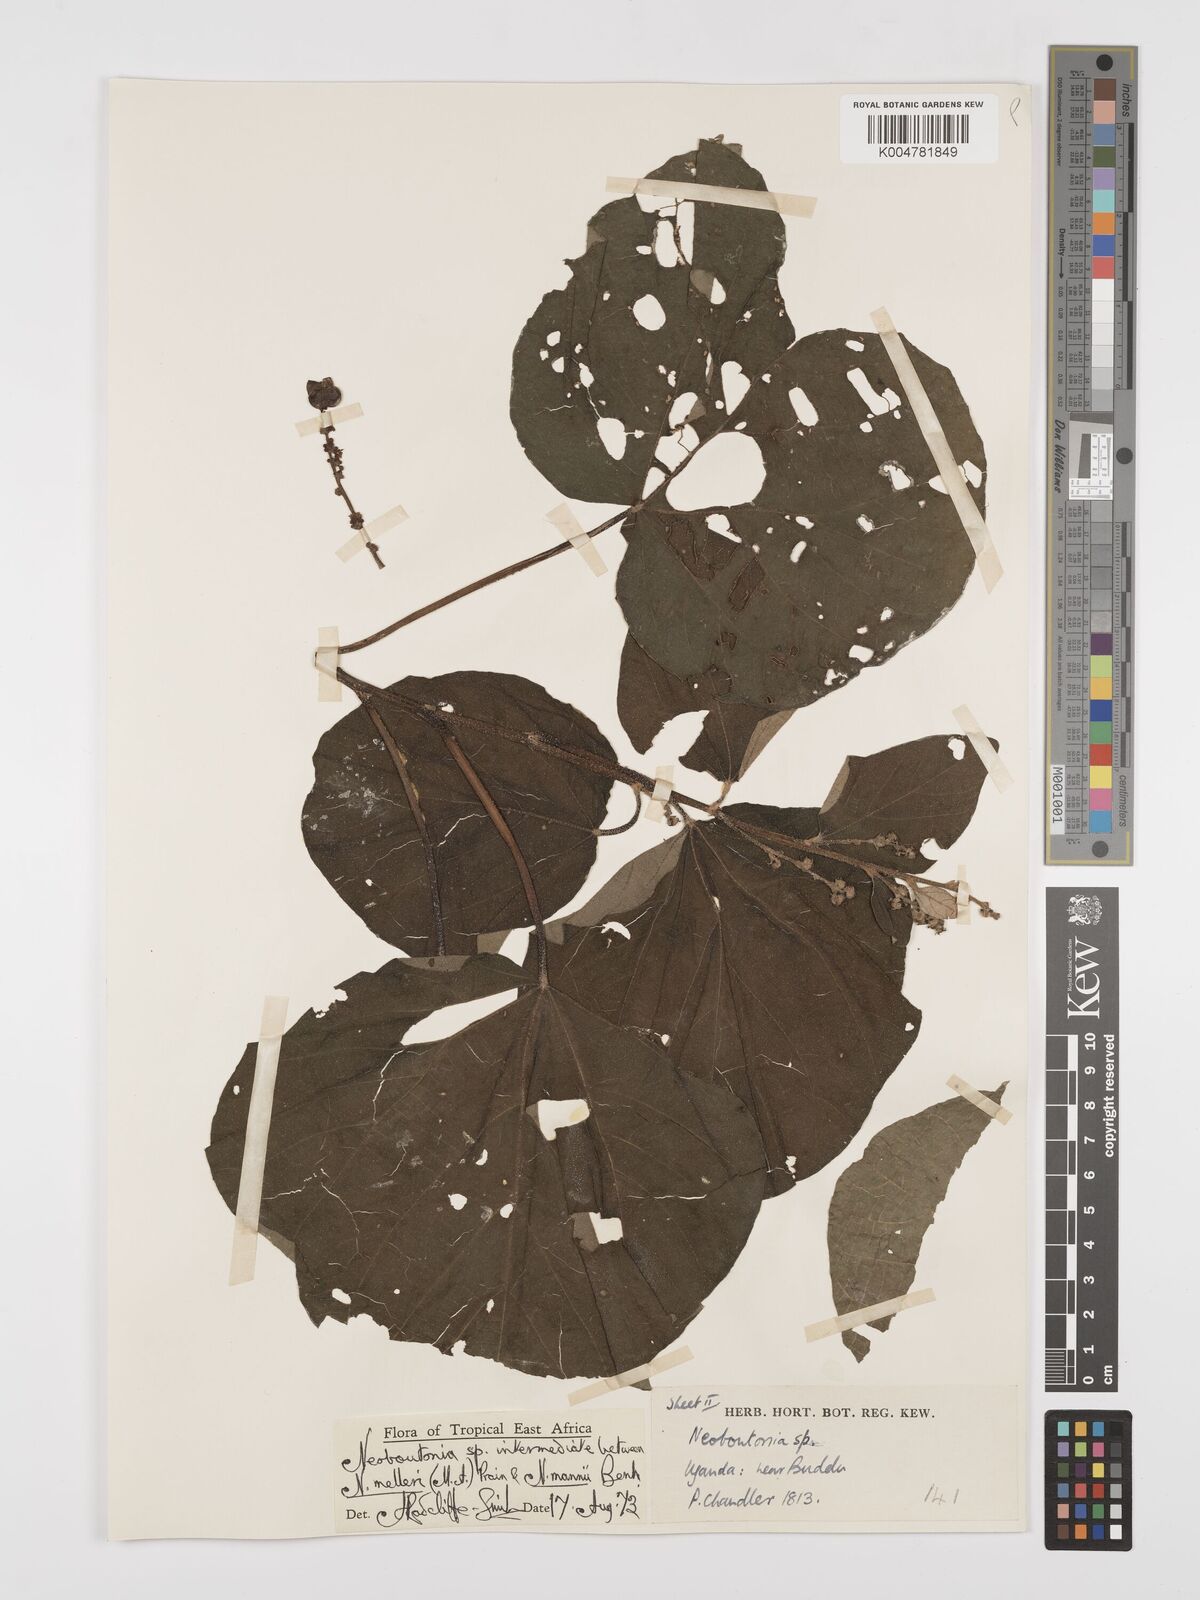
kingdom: Plantae
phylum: Tracheophyta
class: Magnoliopsida
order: Malpighiales
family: Euphorbiaceae
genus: Neoboutonia
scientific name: Neoboutonia melleri
